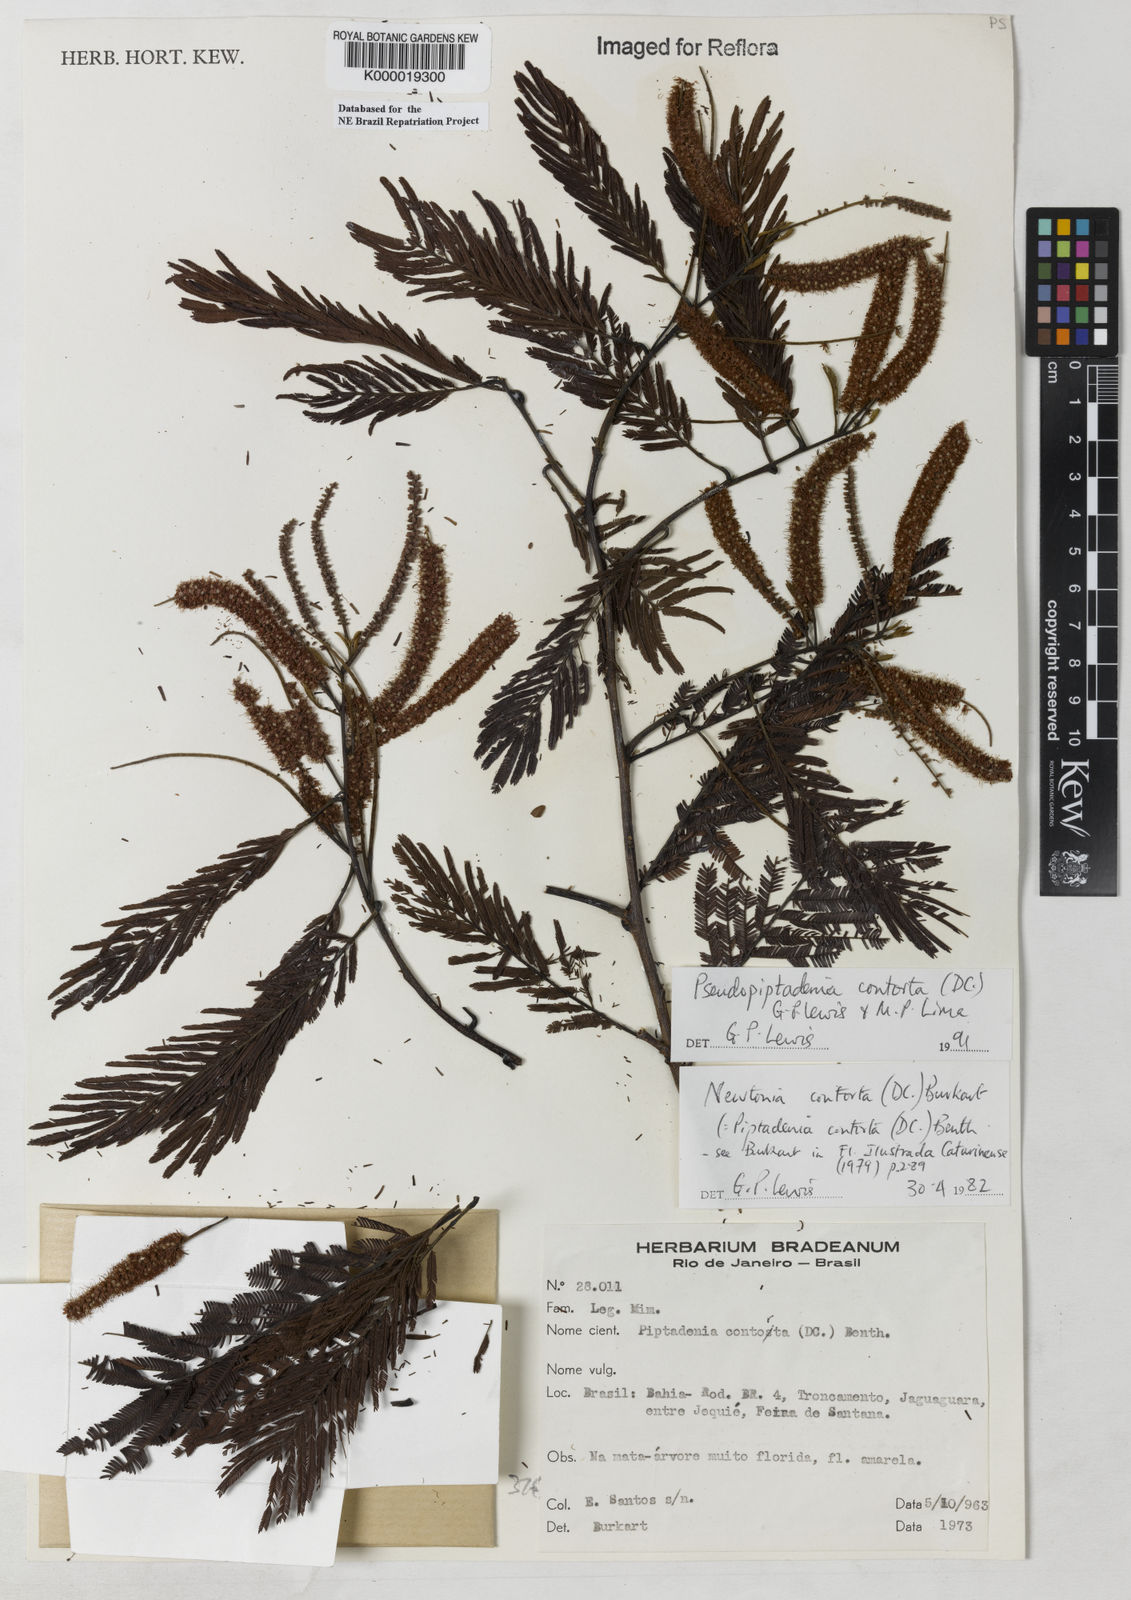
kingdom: Plantae
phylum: Tracheophyta
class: Magnoliopsida
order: Fabales
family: Fabaceae
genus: Pseudopiptadenia
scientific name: Pseudopiptadenia contorta
